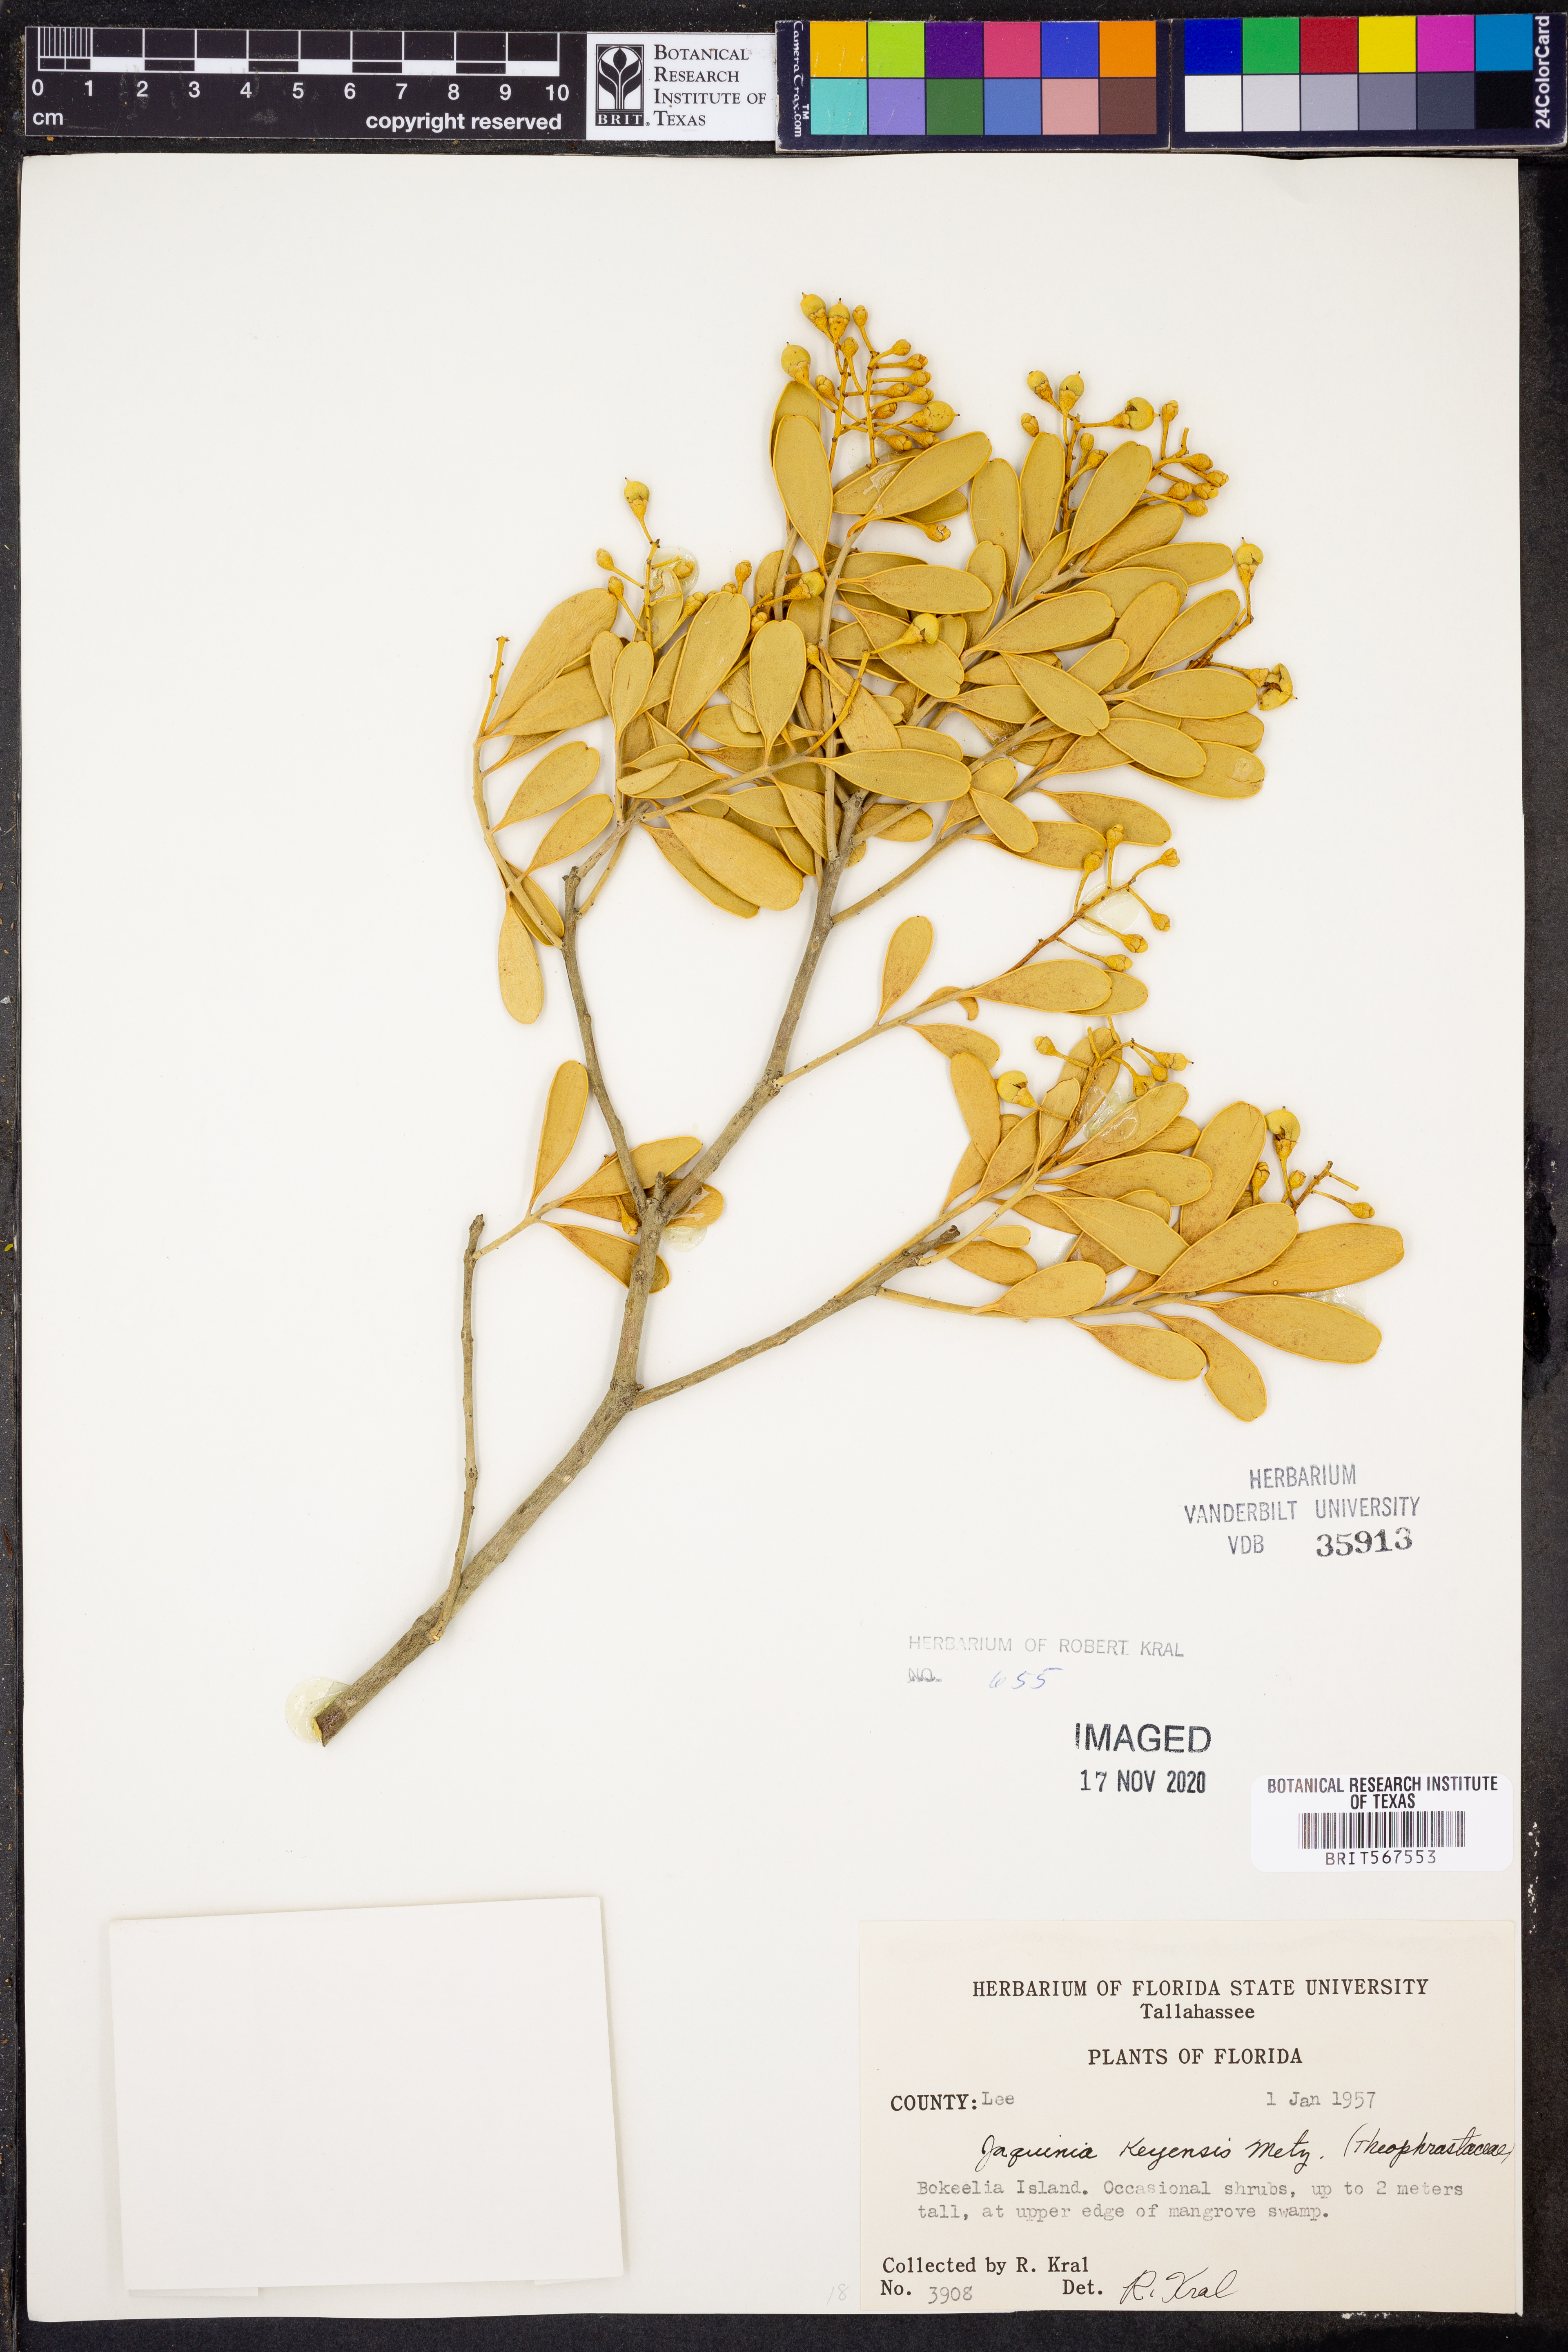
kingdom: Plantae
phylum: Tracheophyta
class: Magnoliopsida
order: Ericales
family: Primulaceae
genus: Jacquinia
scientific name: Jacquinia keyensis
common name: Joebush
